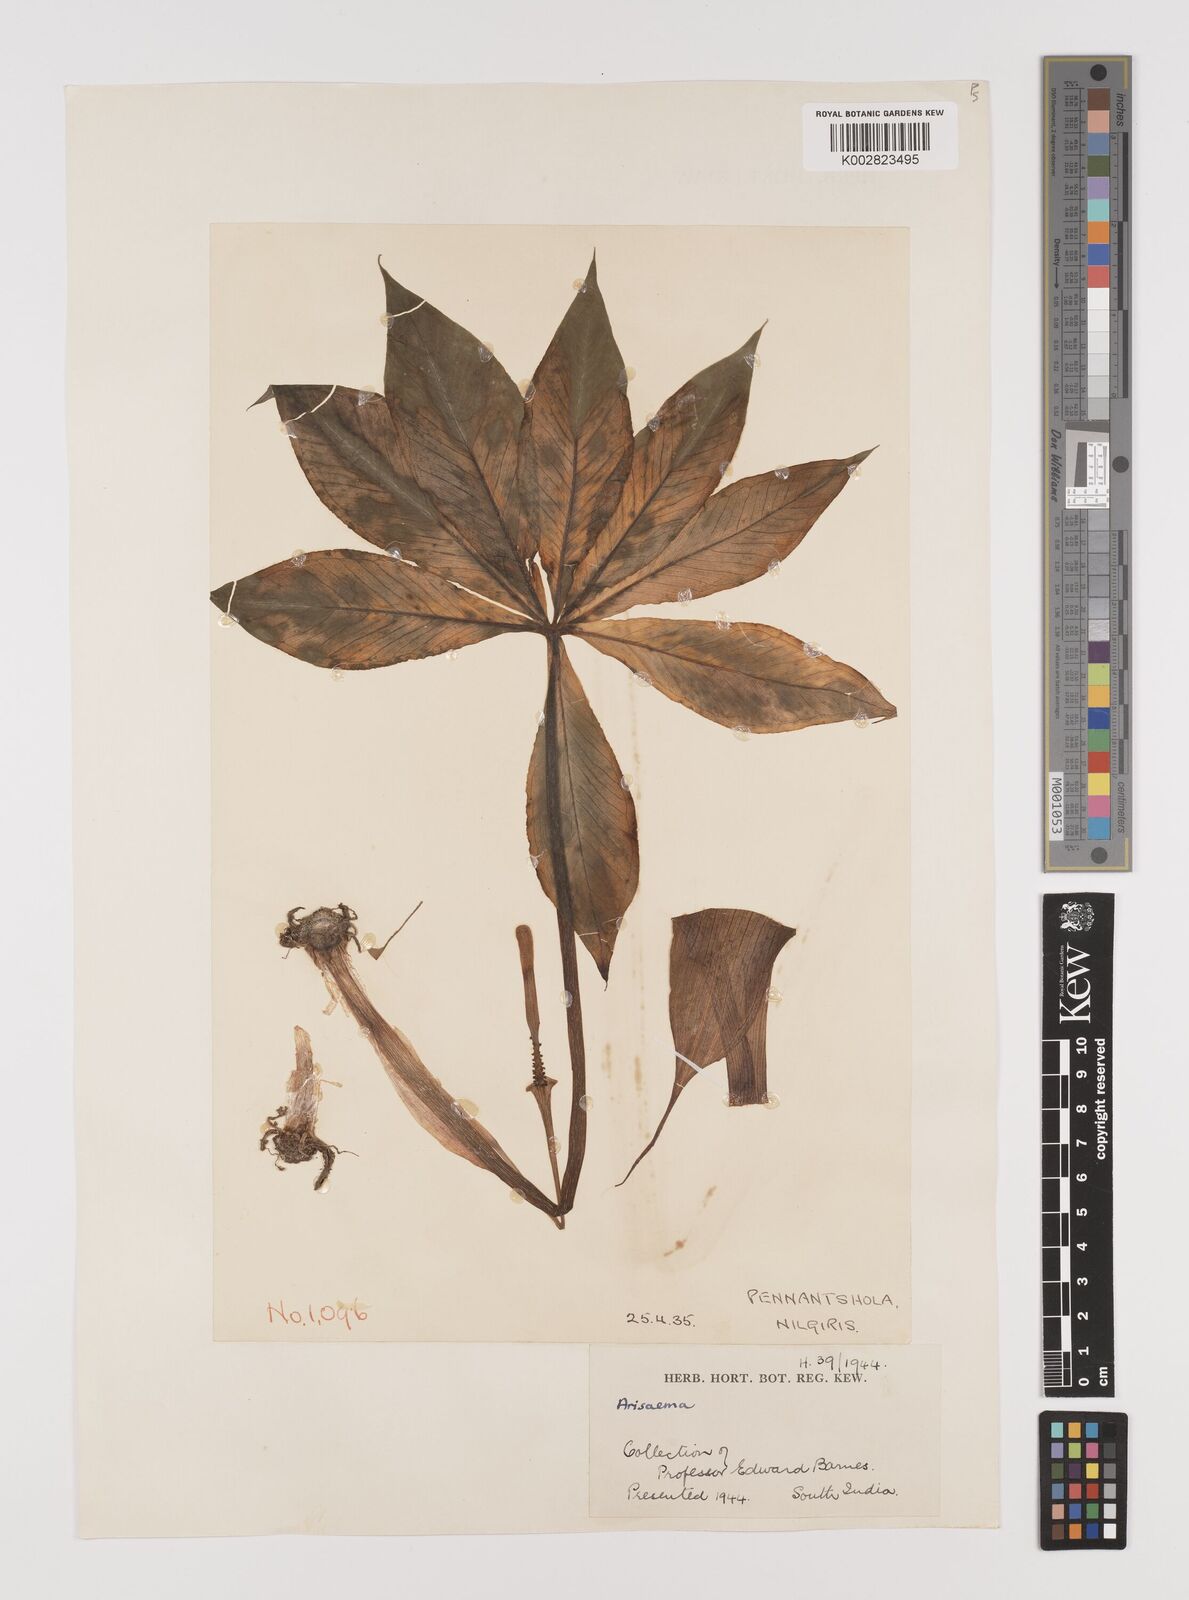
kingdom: Plantae
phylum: Tracheophyta
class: Liliopsida
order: Alismatales
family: Araceae
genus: Arisaema
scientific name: Arisaema
